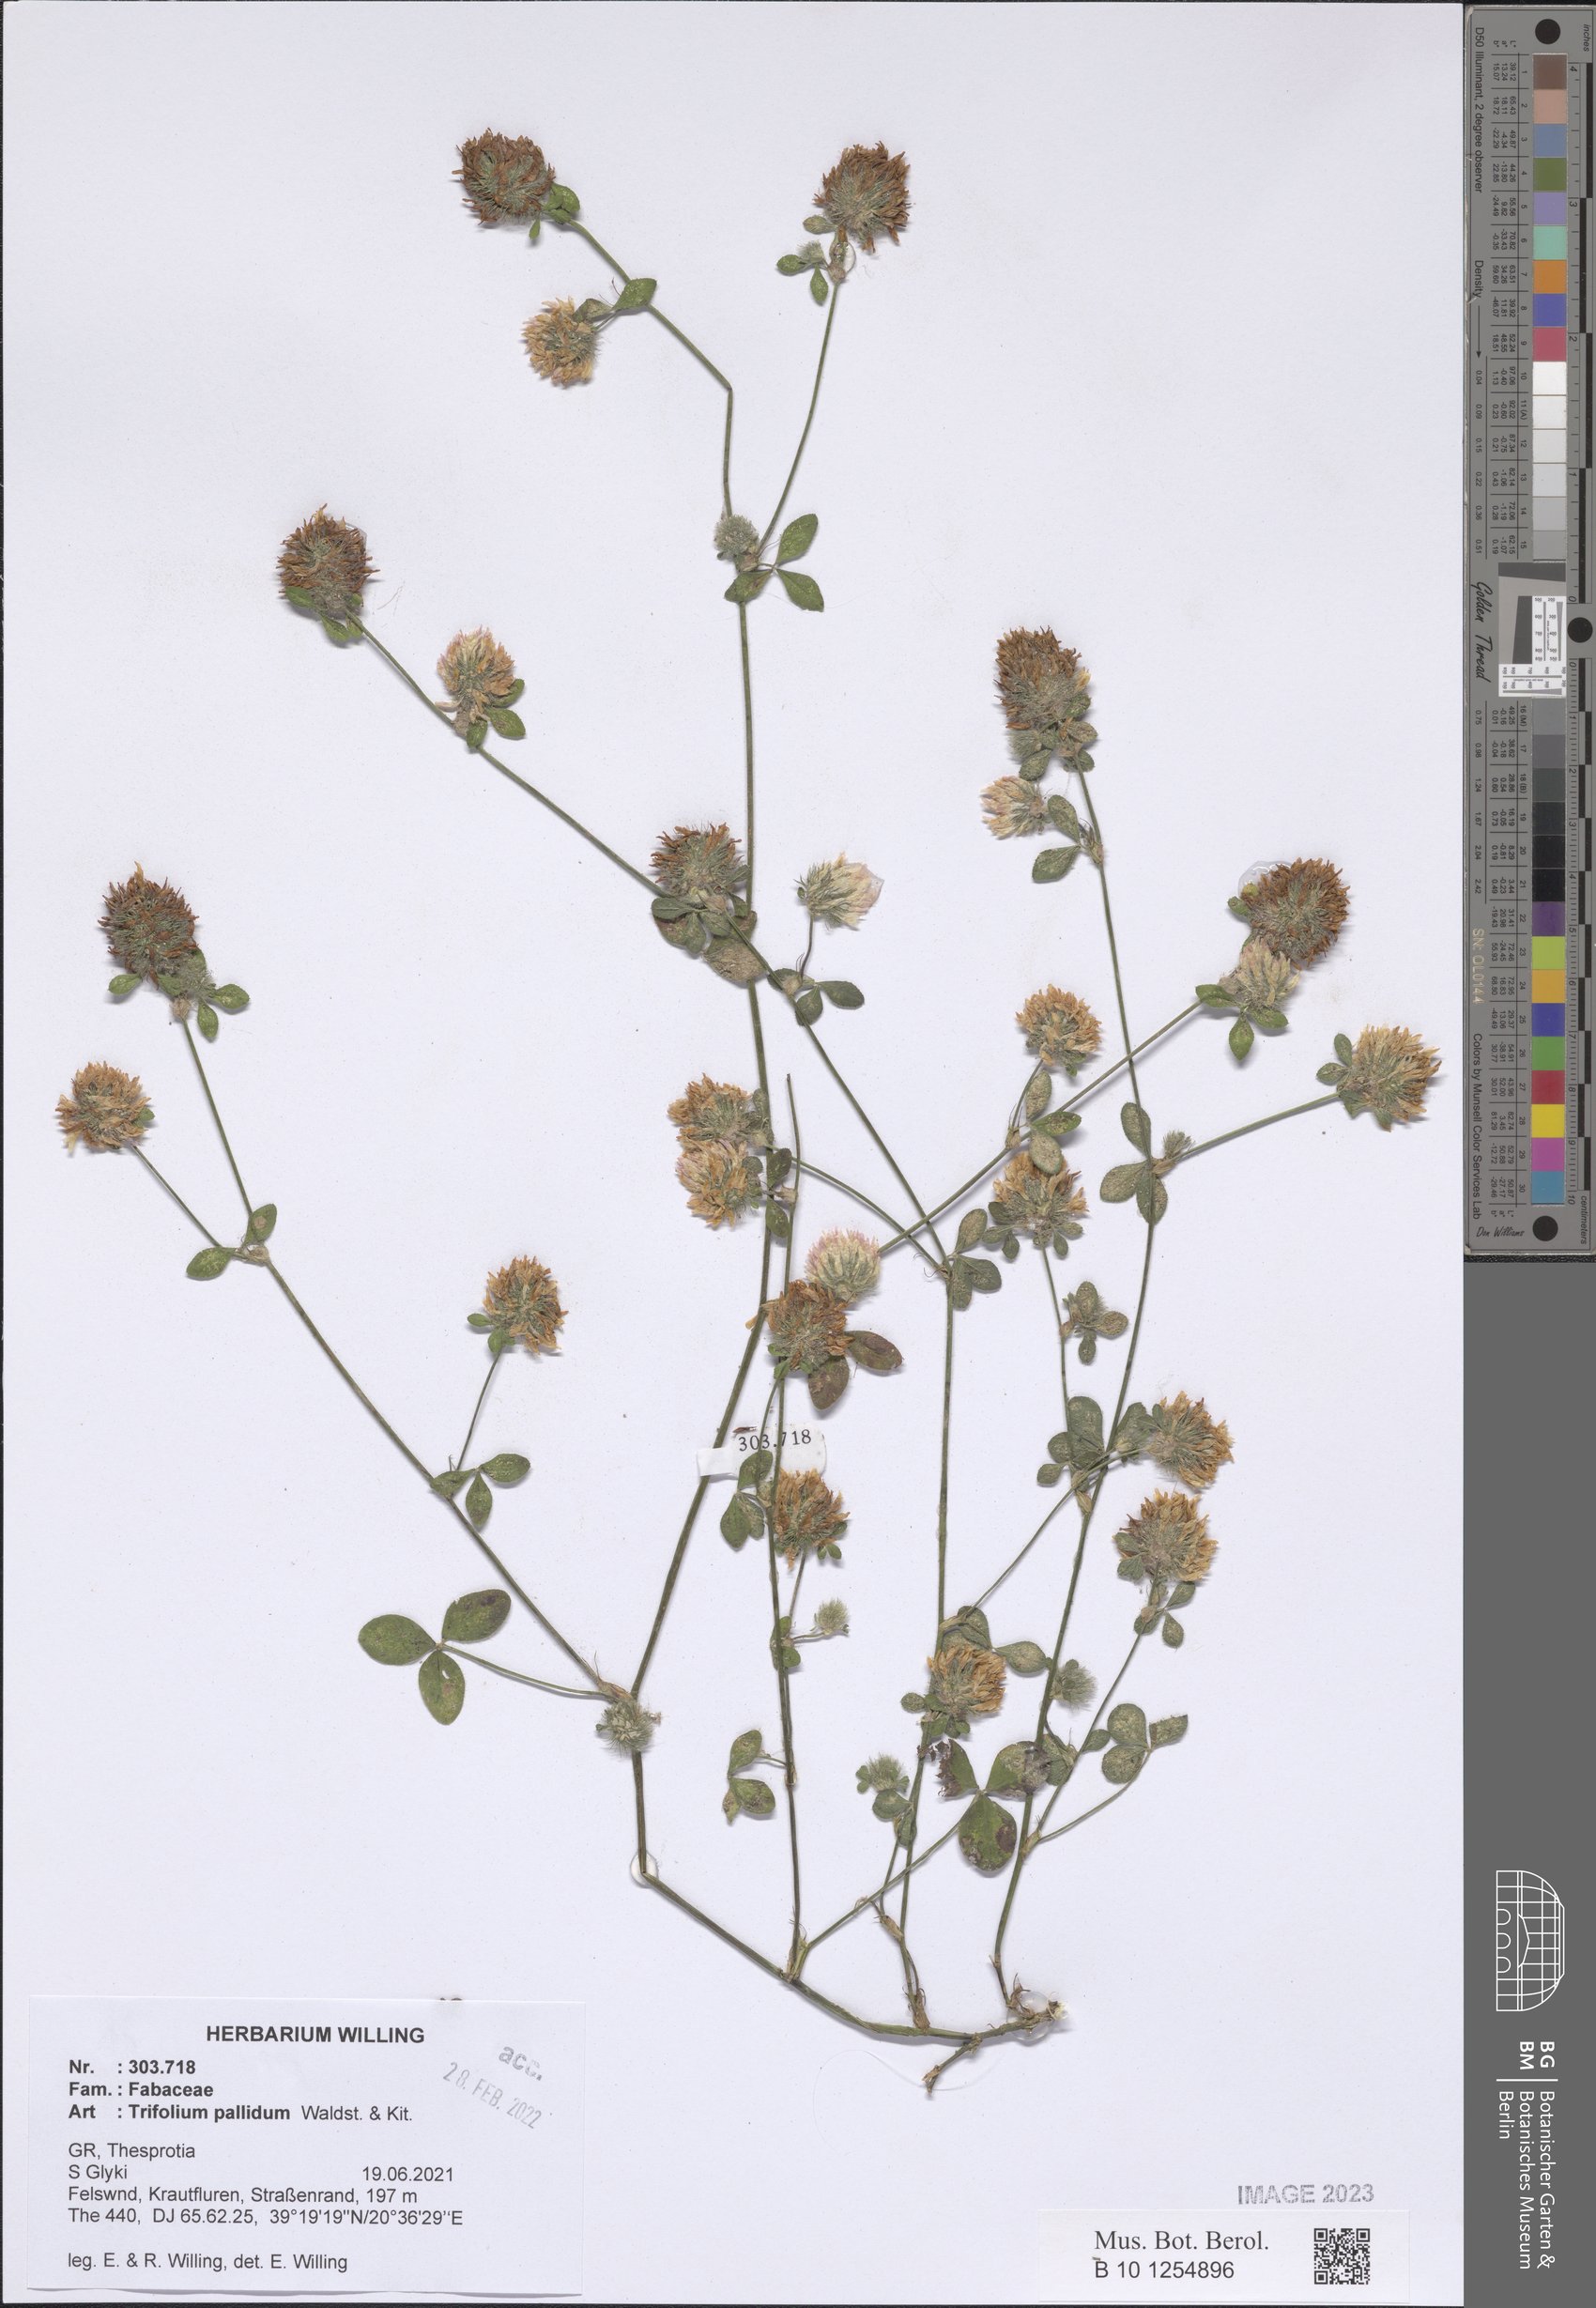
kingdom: Plantae
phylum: Tracheophyta
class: Magnoliopsida
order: Fabales
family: Fabaceae
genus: Trifolium
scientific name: Trifolium pallidum
